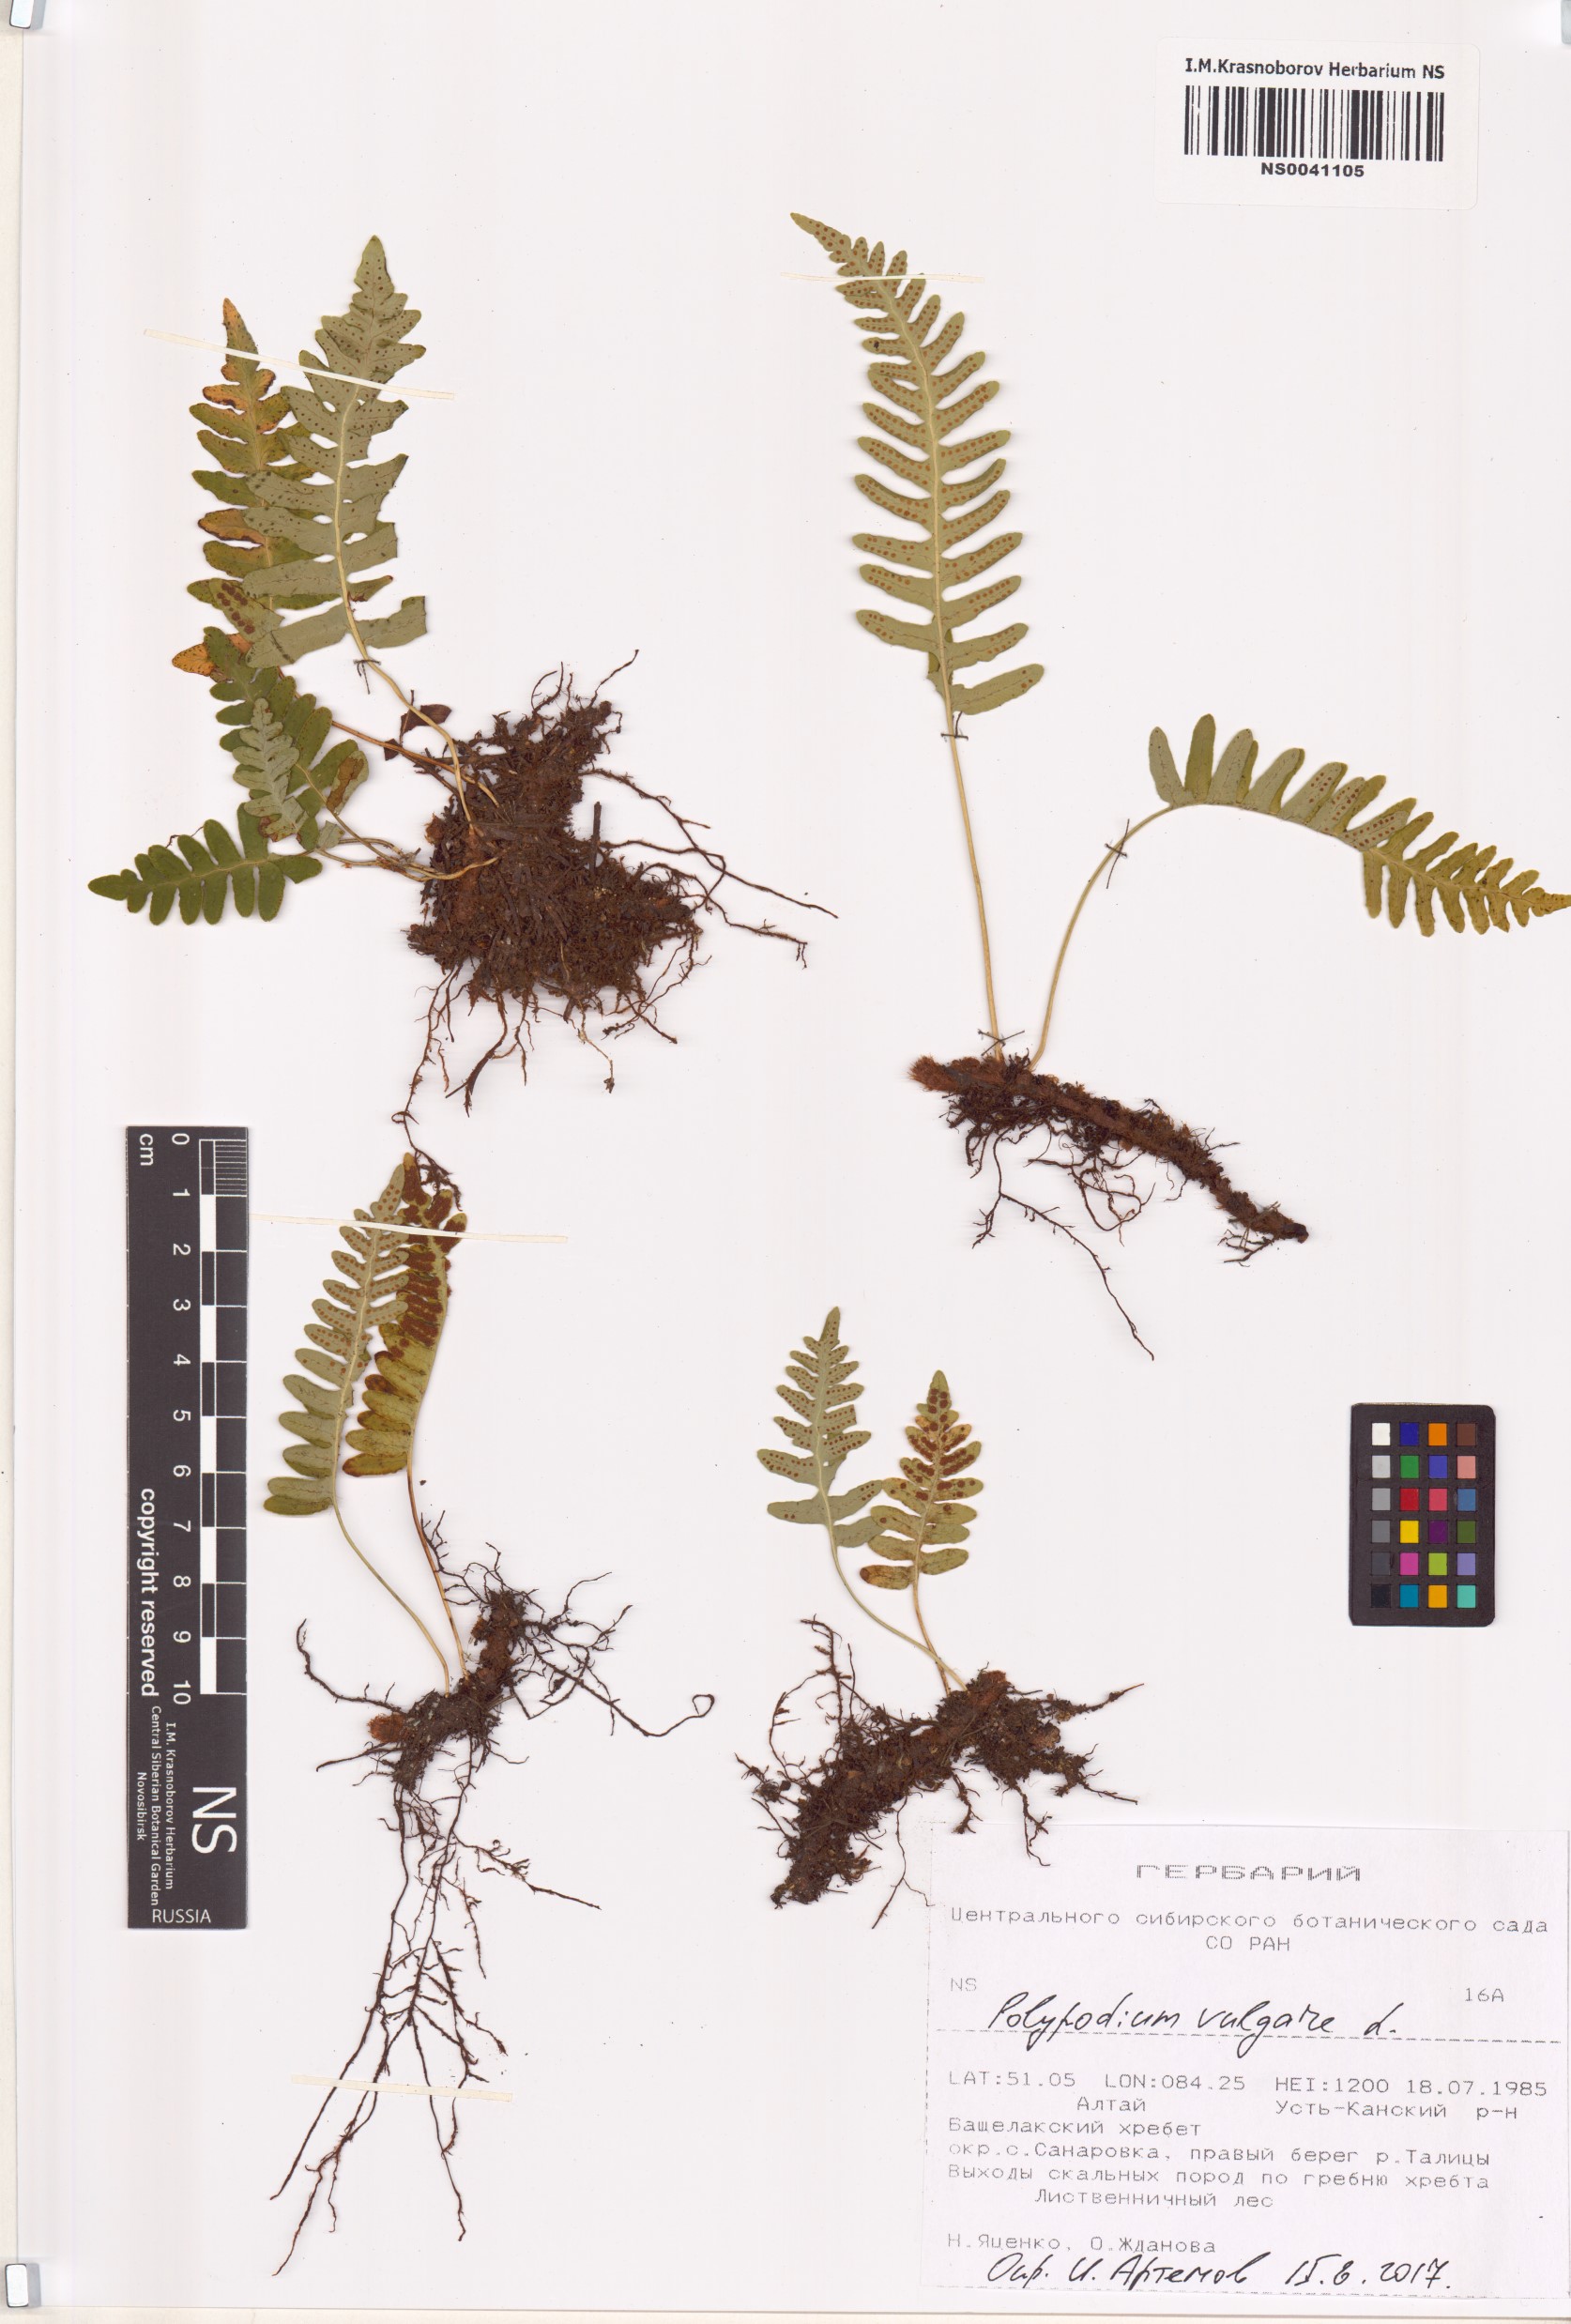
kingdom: Plantae
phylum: Tracheophyta
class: Polypodiopsida
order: Polypodiales
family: Polypodiaceae
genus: Polypodium
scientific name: Polypodium vulgare
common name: Common polypody
